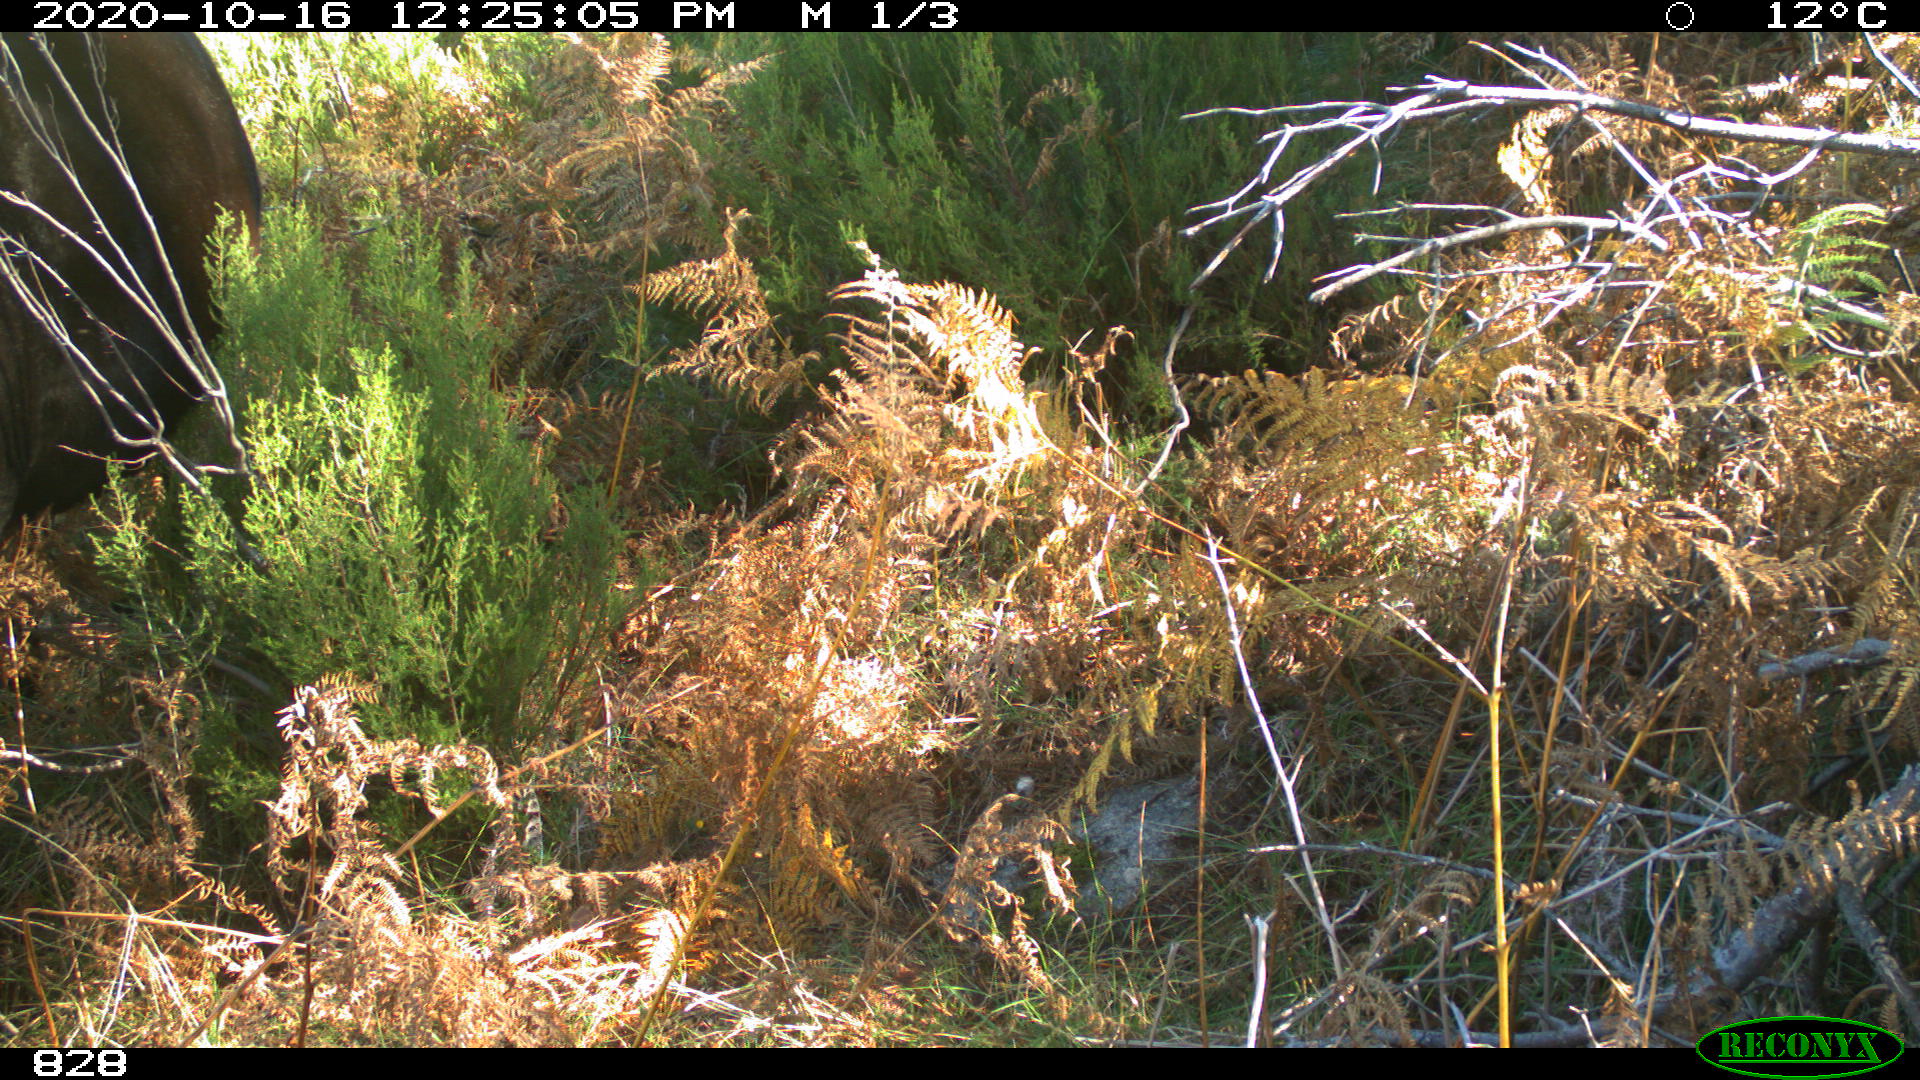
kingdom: Animalia
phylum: Chordata
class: Mammalia
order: Perissodactyla
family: Equidae
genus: Equus
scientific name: Equus caballus
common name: Horse
